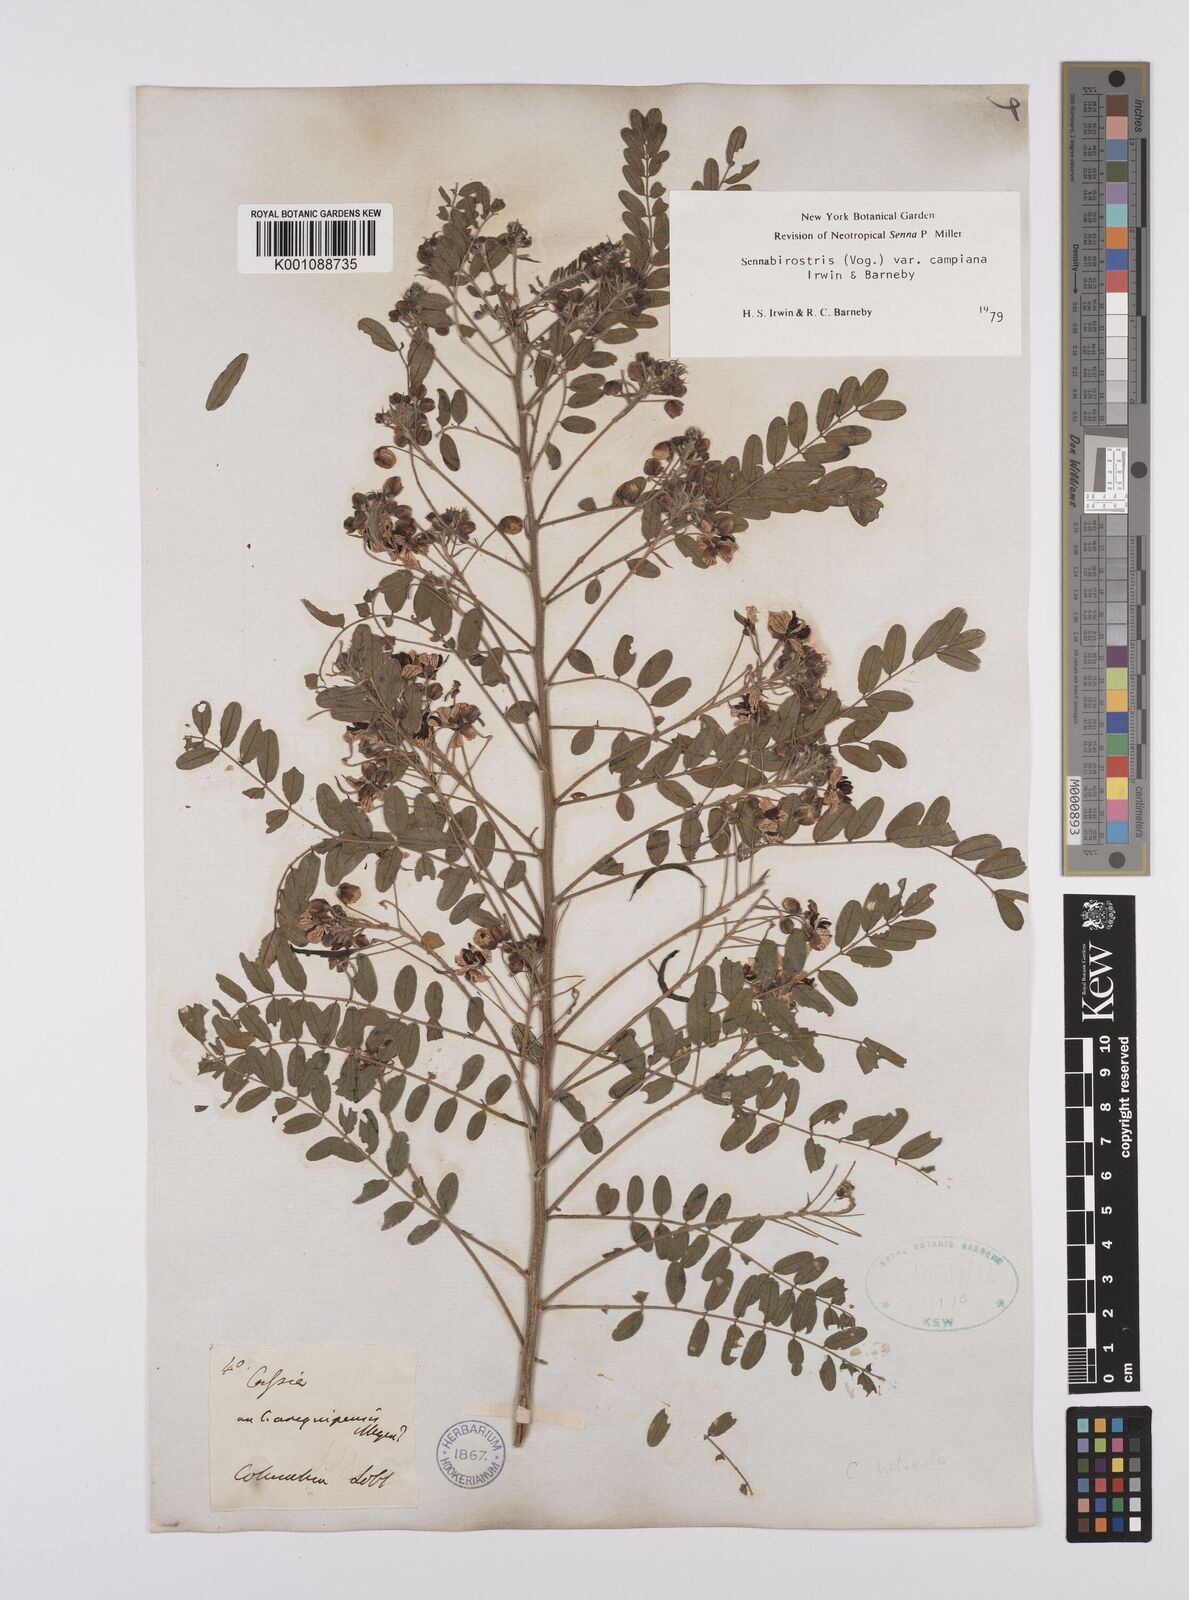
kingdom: Plantae
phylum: Tracheophyta
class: Magnoliopsida
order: Fabales
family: Fabaceae
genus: Senna
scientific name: Senna birostris
